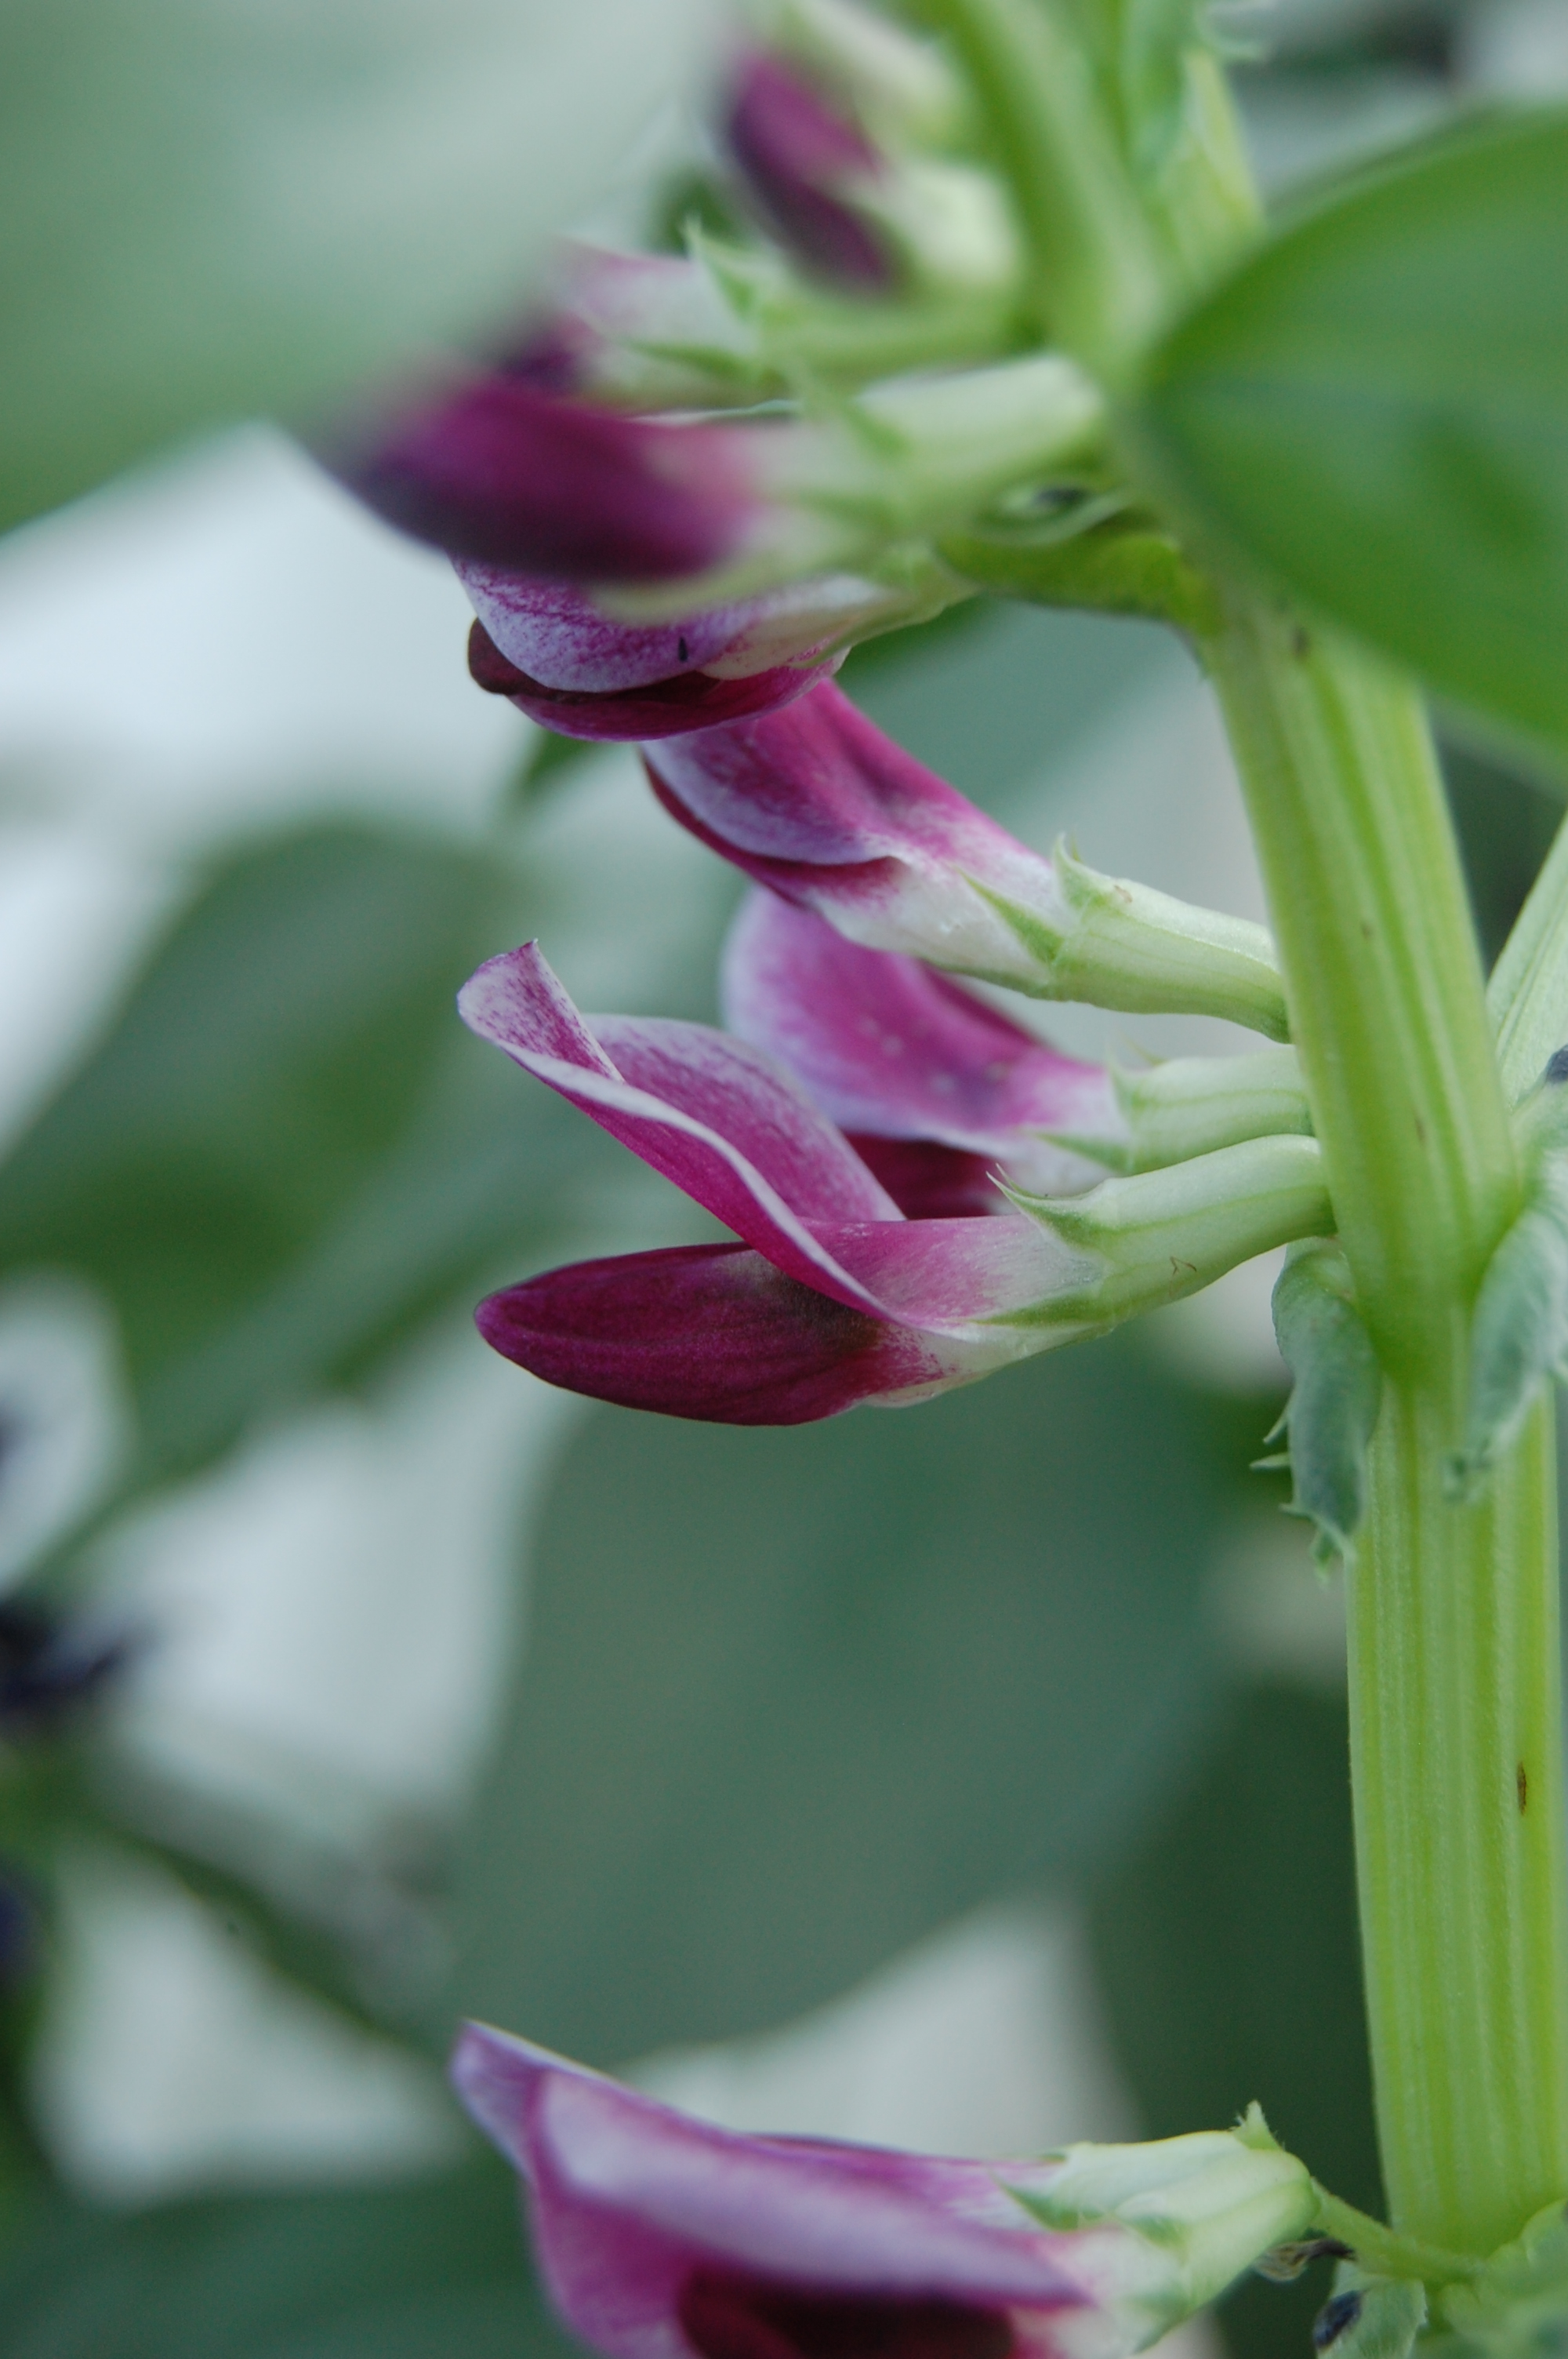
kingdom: Plantae
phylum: Tracheophyta
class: Magnoliopsida
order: Fabales
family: Fabaceae
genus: Vicia
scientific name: Vicia faba
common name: Broad bean
